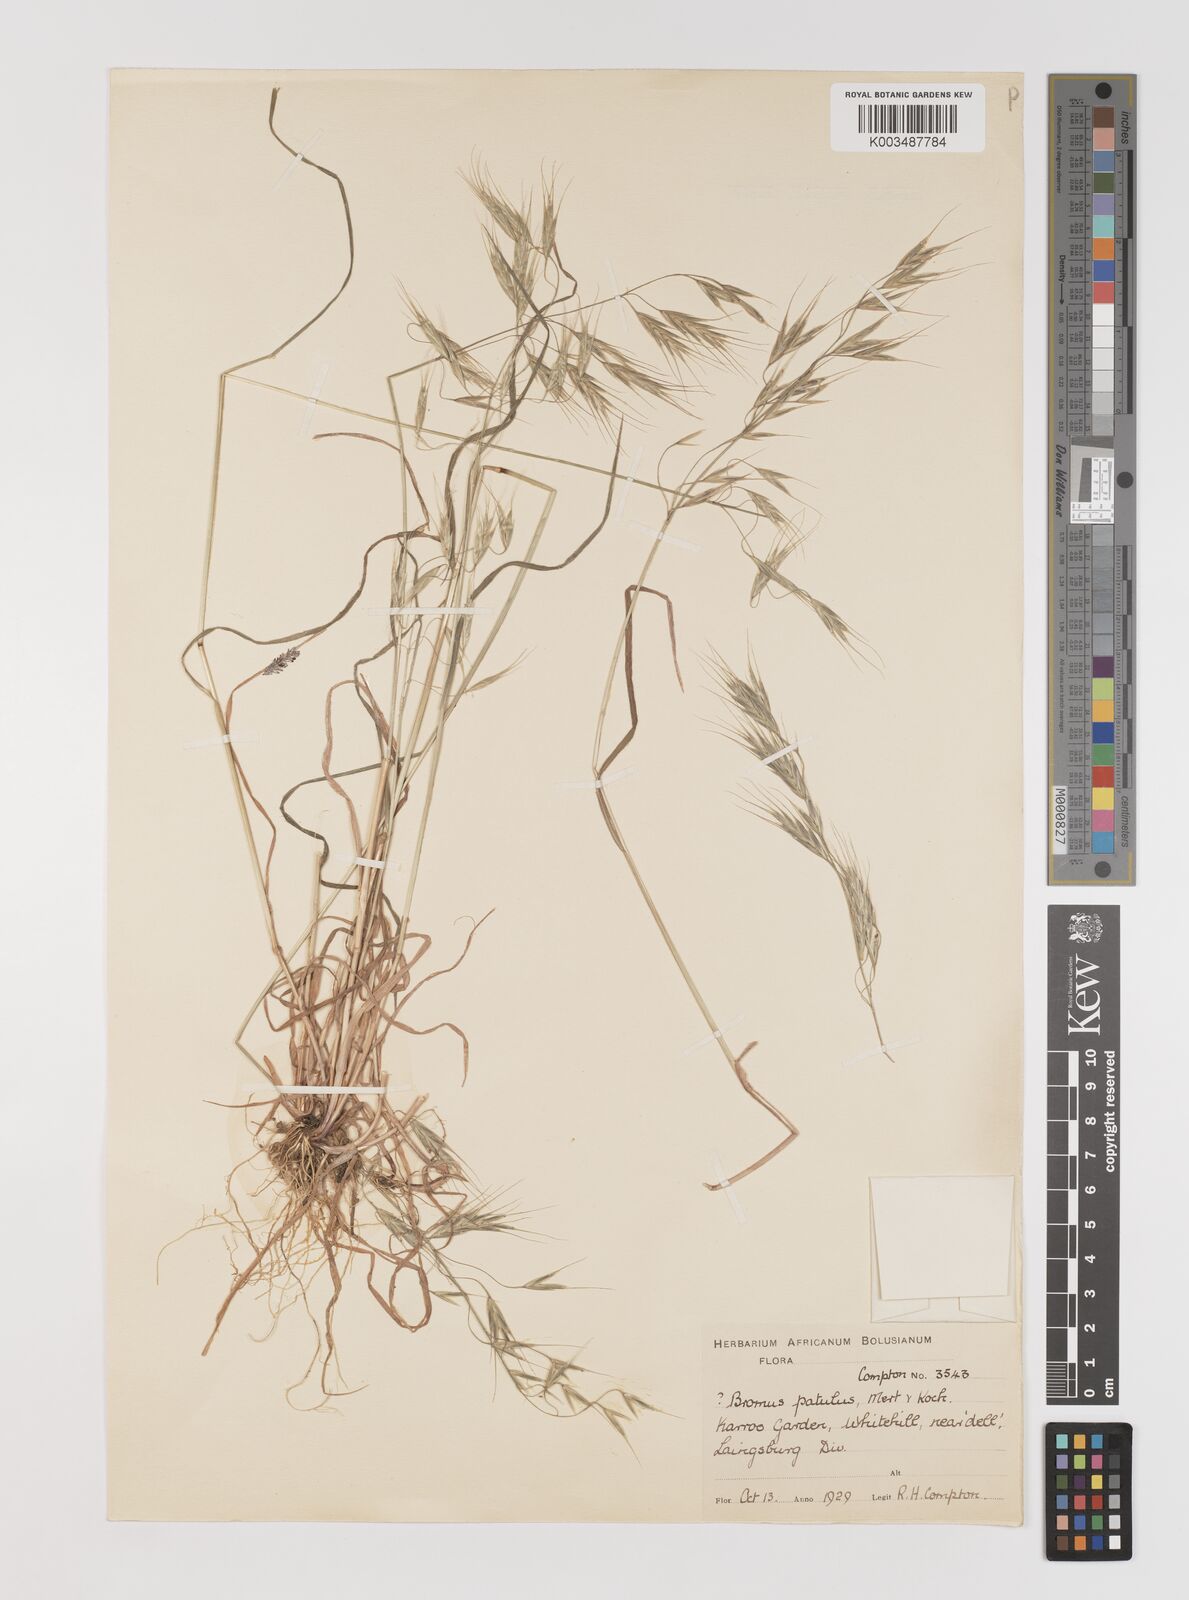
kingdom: Plantae
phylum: Tracheophyta
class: Liliopsida
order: Poales
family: Poaceae
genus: Bromus
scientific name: Bromus pectinatus
